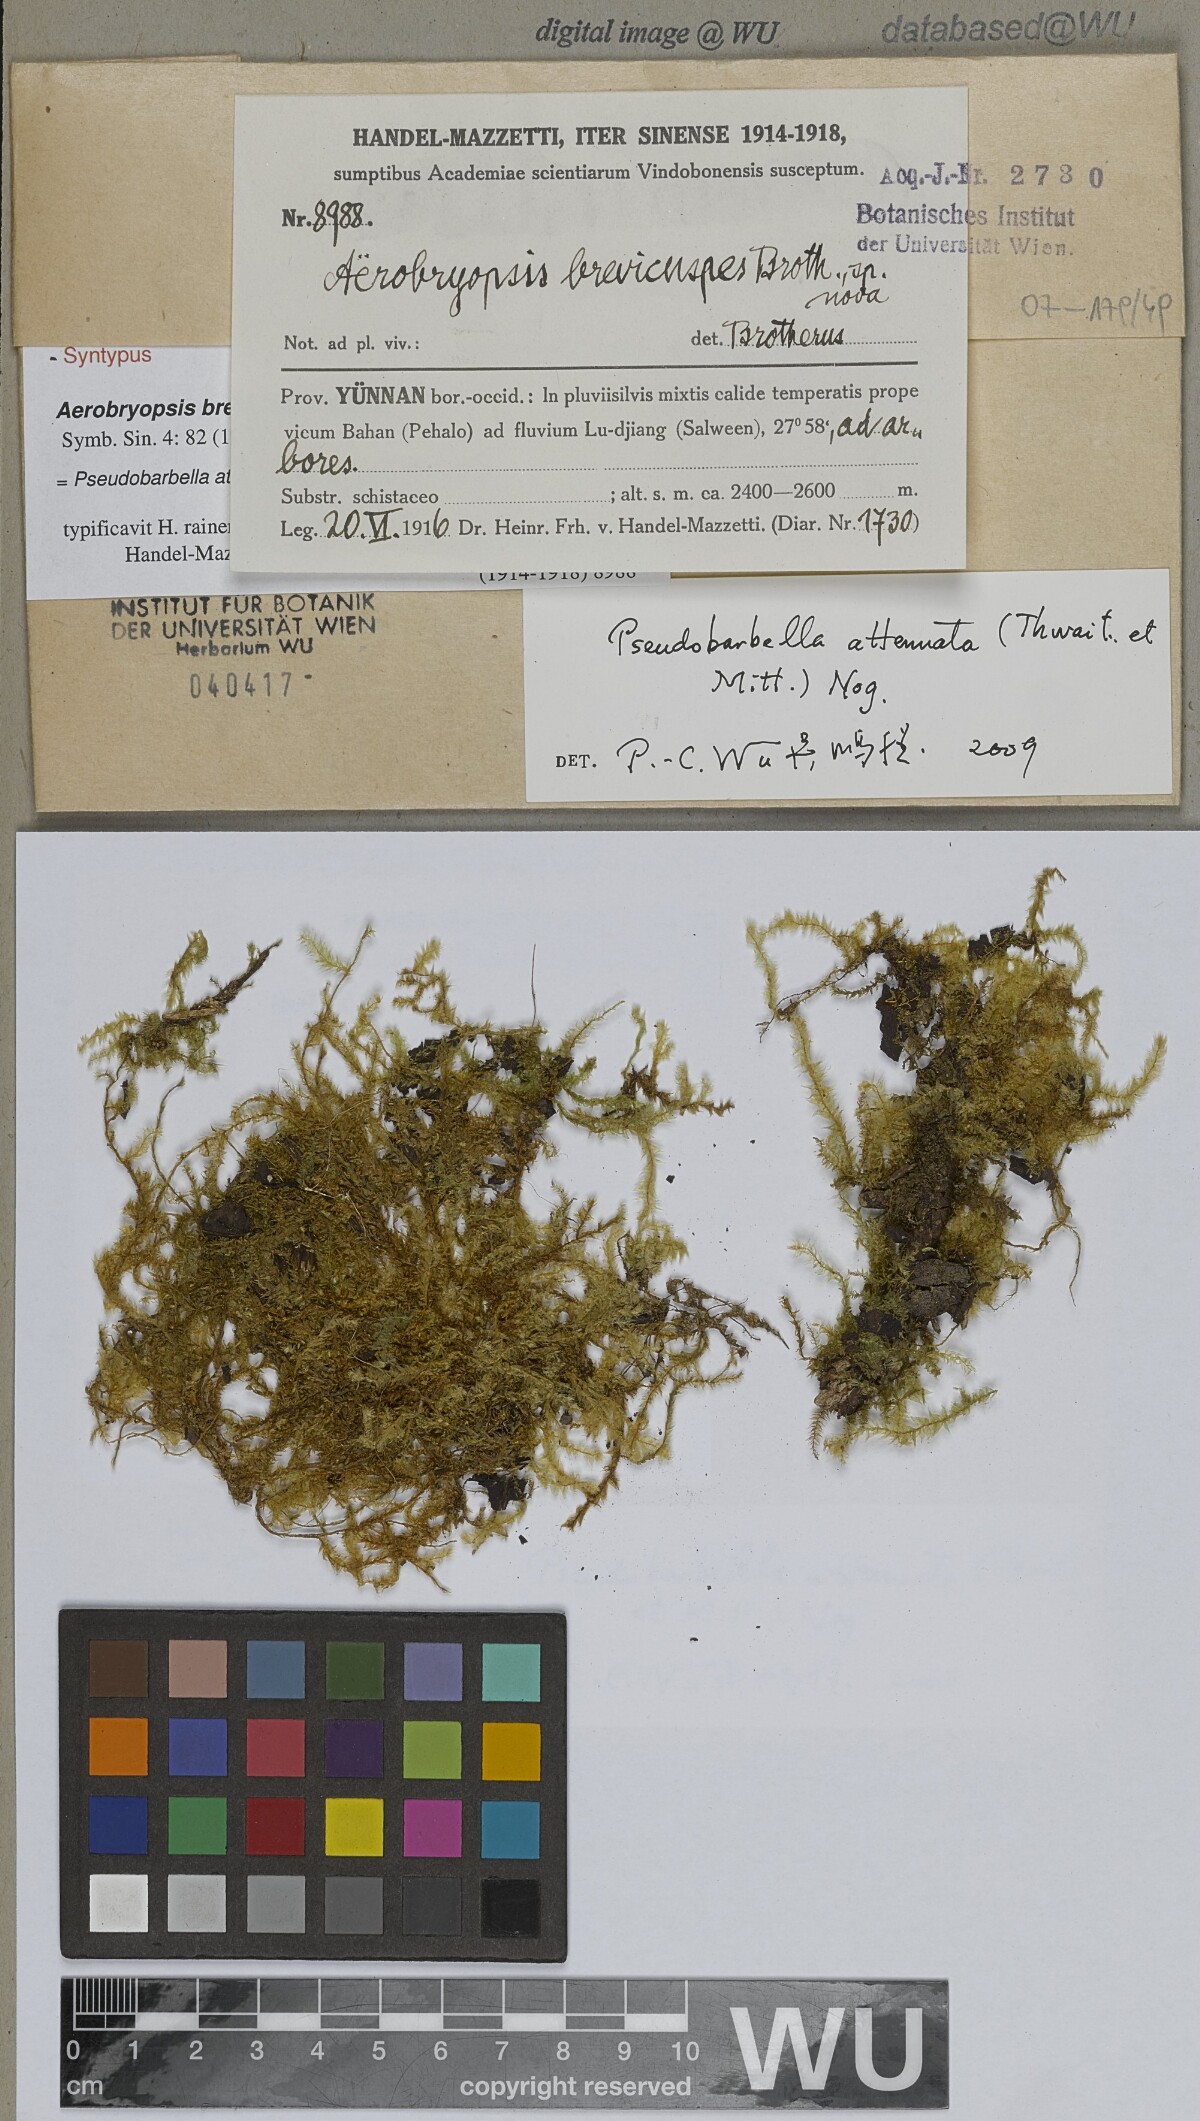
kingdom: Plantae
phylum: Bryophyta
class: Bryopsida
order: Hypnales
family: Meteoriaceae
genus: Pseudotrachypus
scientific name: Pseudotrachypus wallichii
